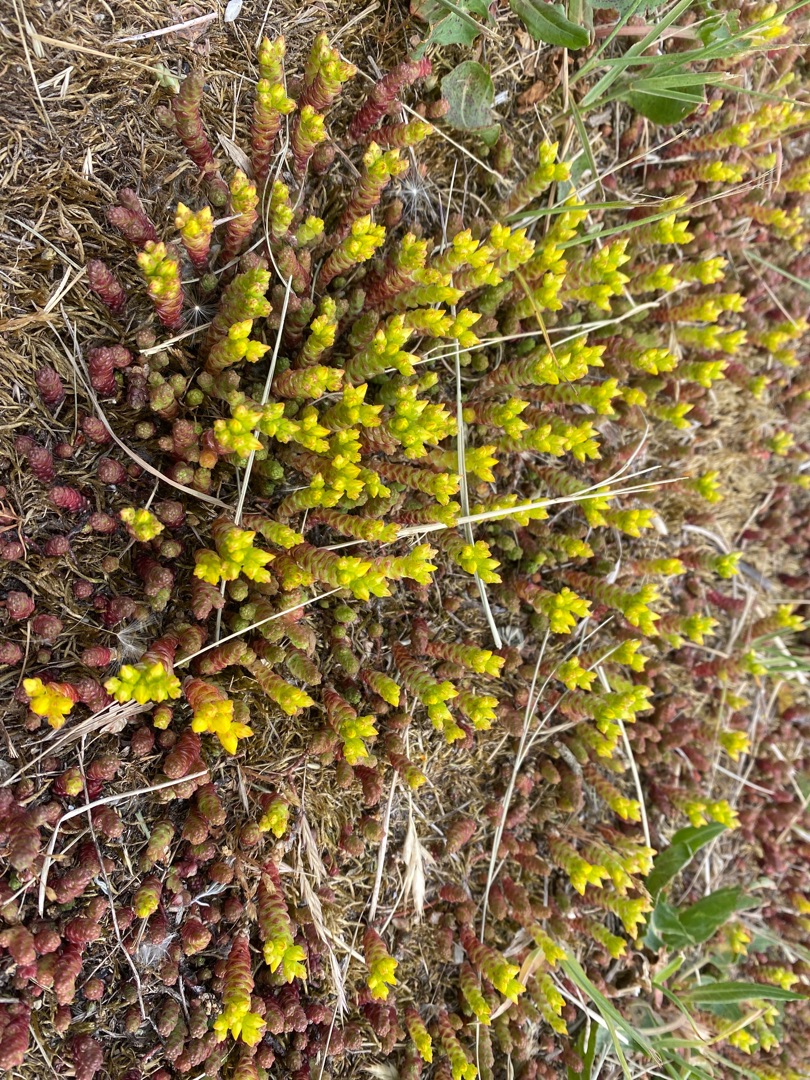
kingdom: Plantae
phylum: Tracheophyta
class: Magnoliopsida
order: Saxifragales
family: Crassulaceae
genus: Sedum
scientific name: Sedum acre
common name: Bidende stenurt
